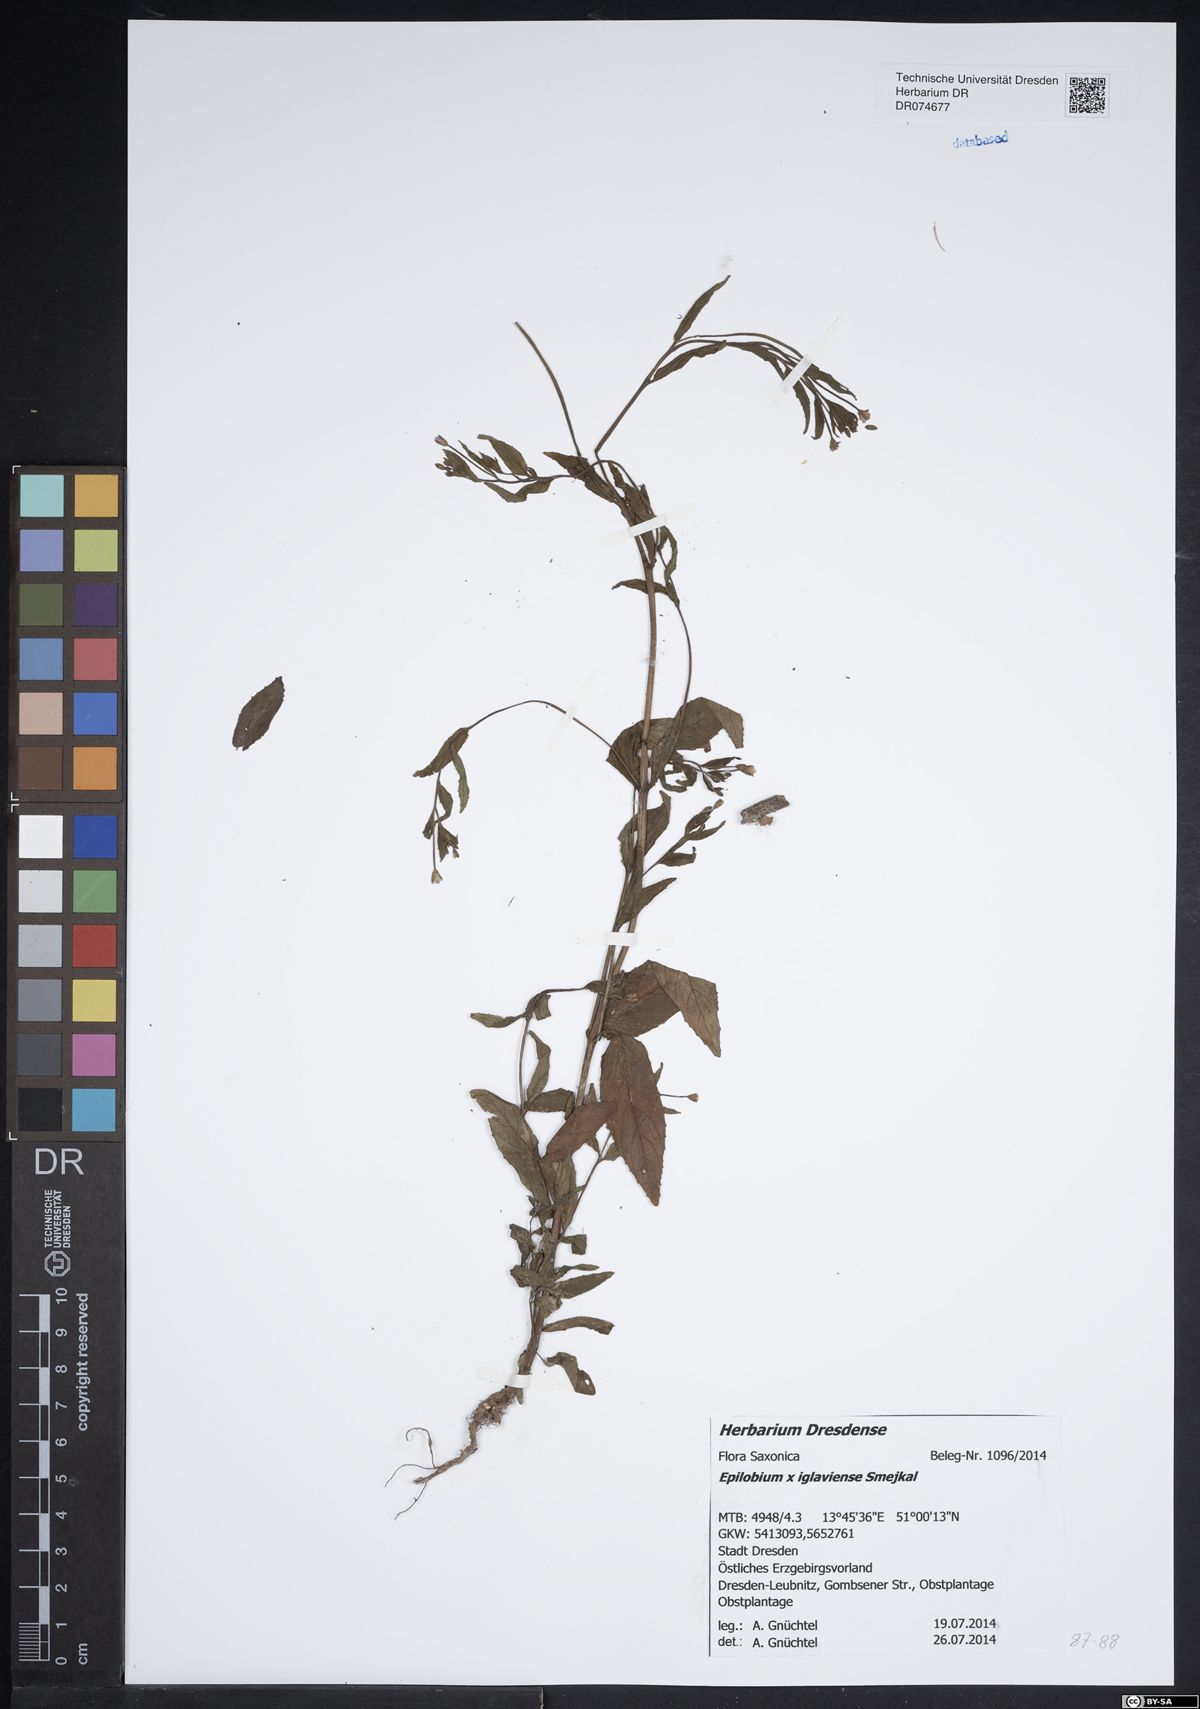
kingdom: Plantae
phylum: Tracheophyta
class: Magnoliopsida
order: Myrtales
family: Onagraceae
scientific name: Onagraceae
